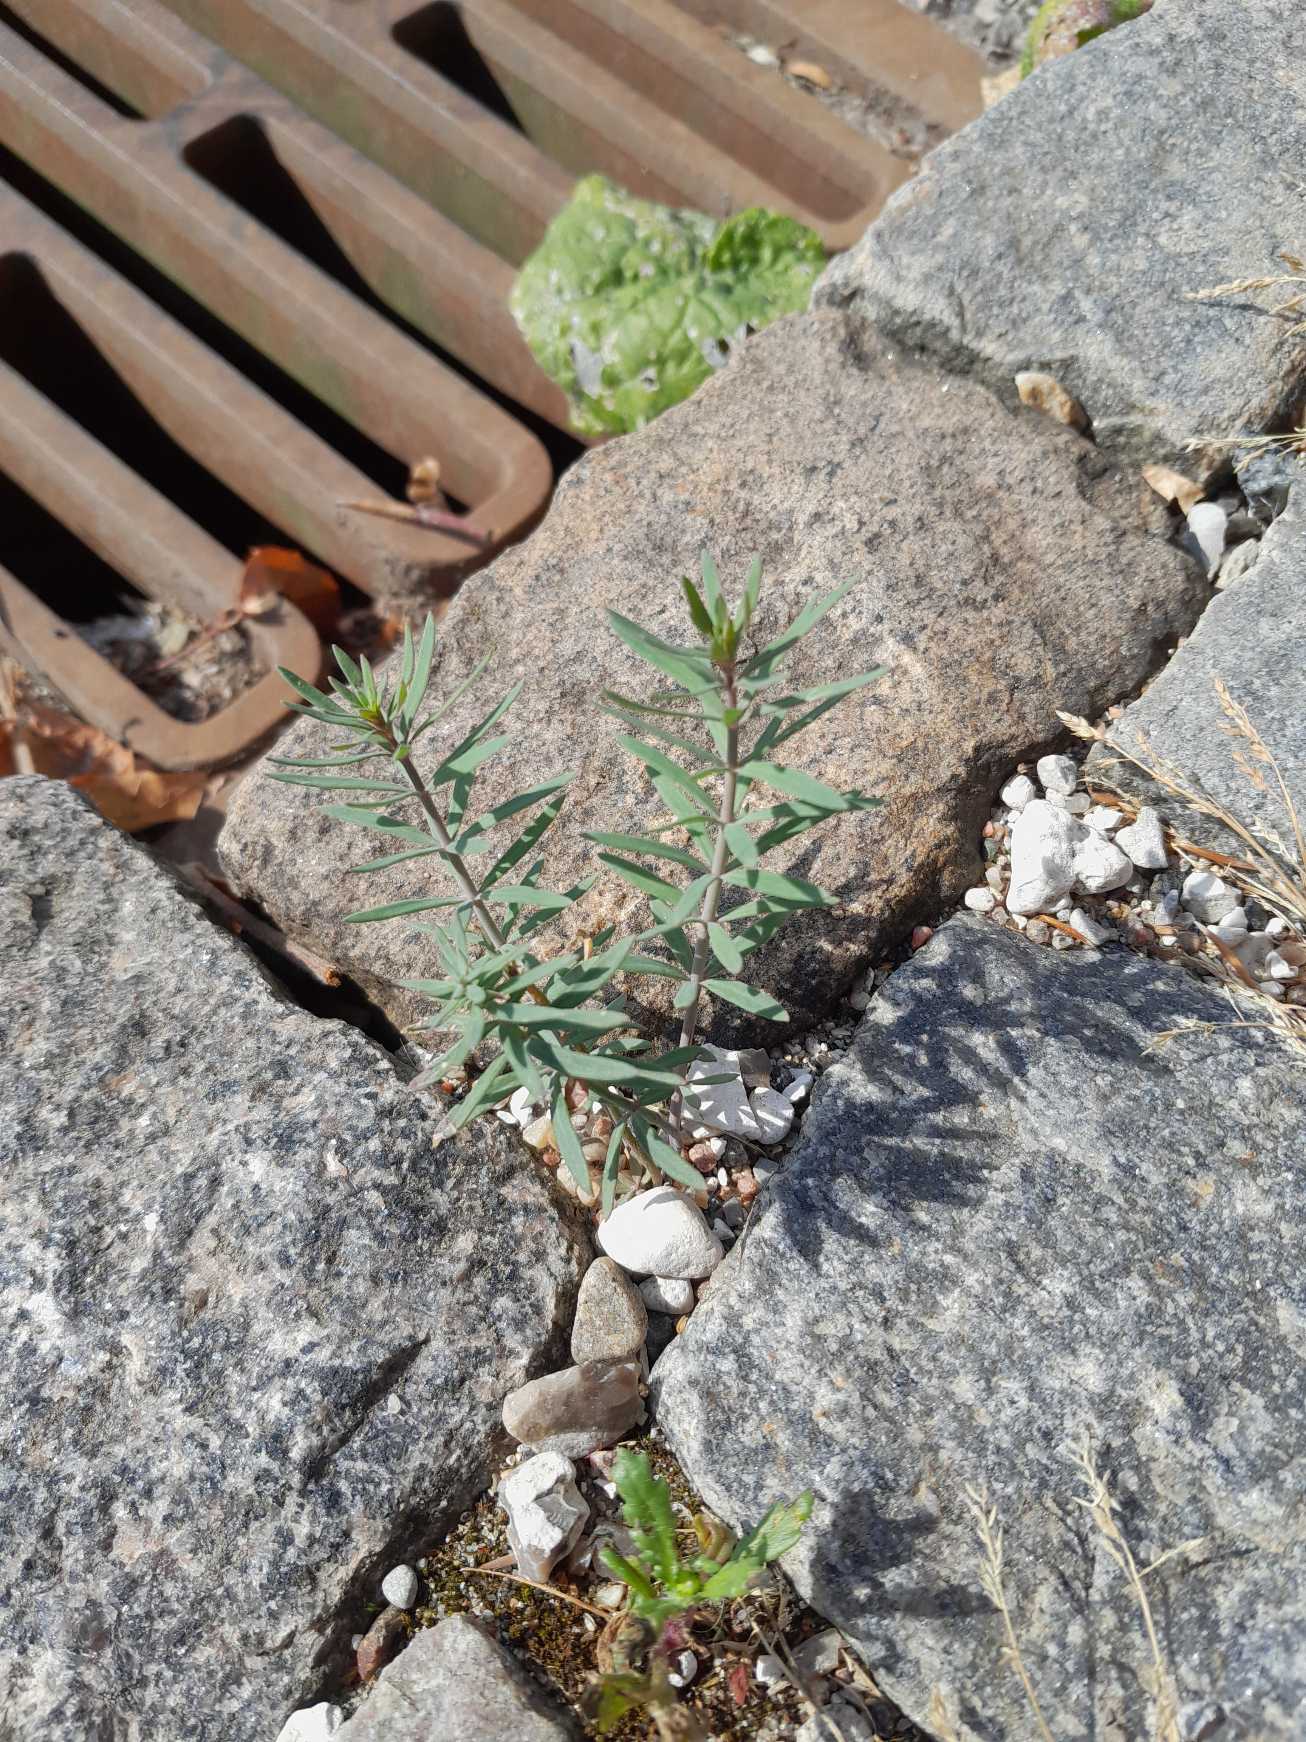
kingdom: Plantae
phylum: Tracheophyta
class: Magnoliopsida
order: Lamiales
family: Plantaginaceae
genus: Linaria
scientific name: Linaria purpurea
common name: Purpur-torskemund
